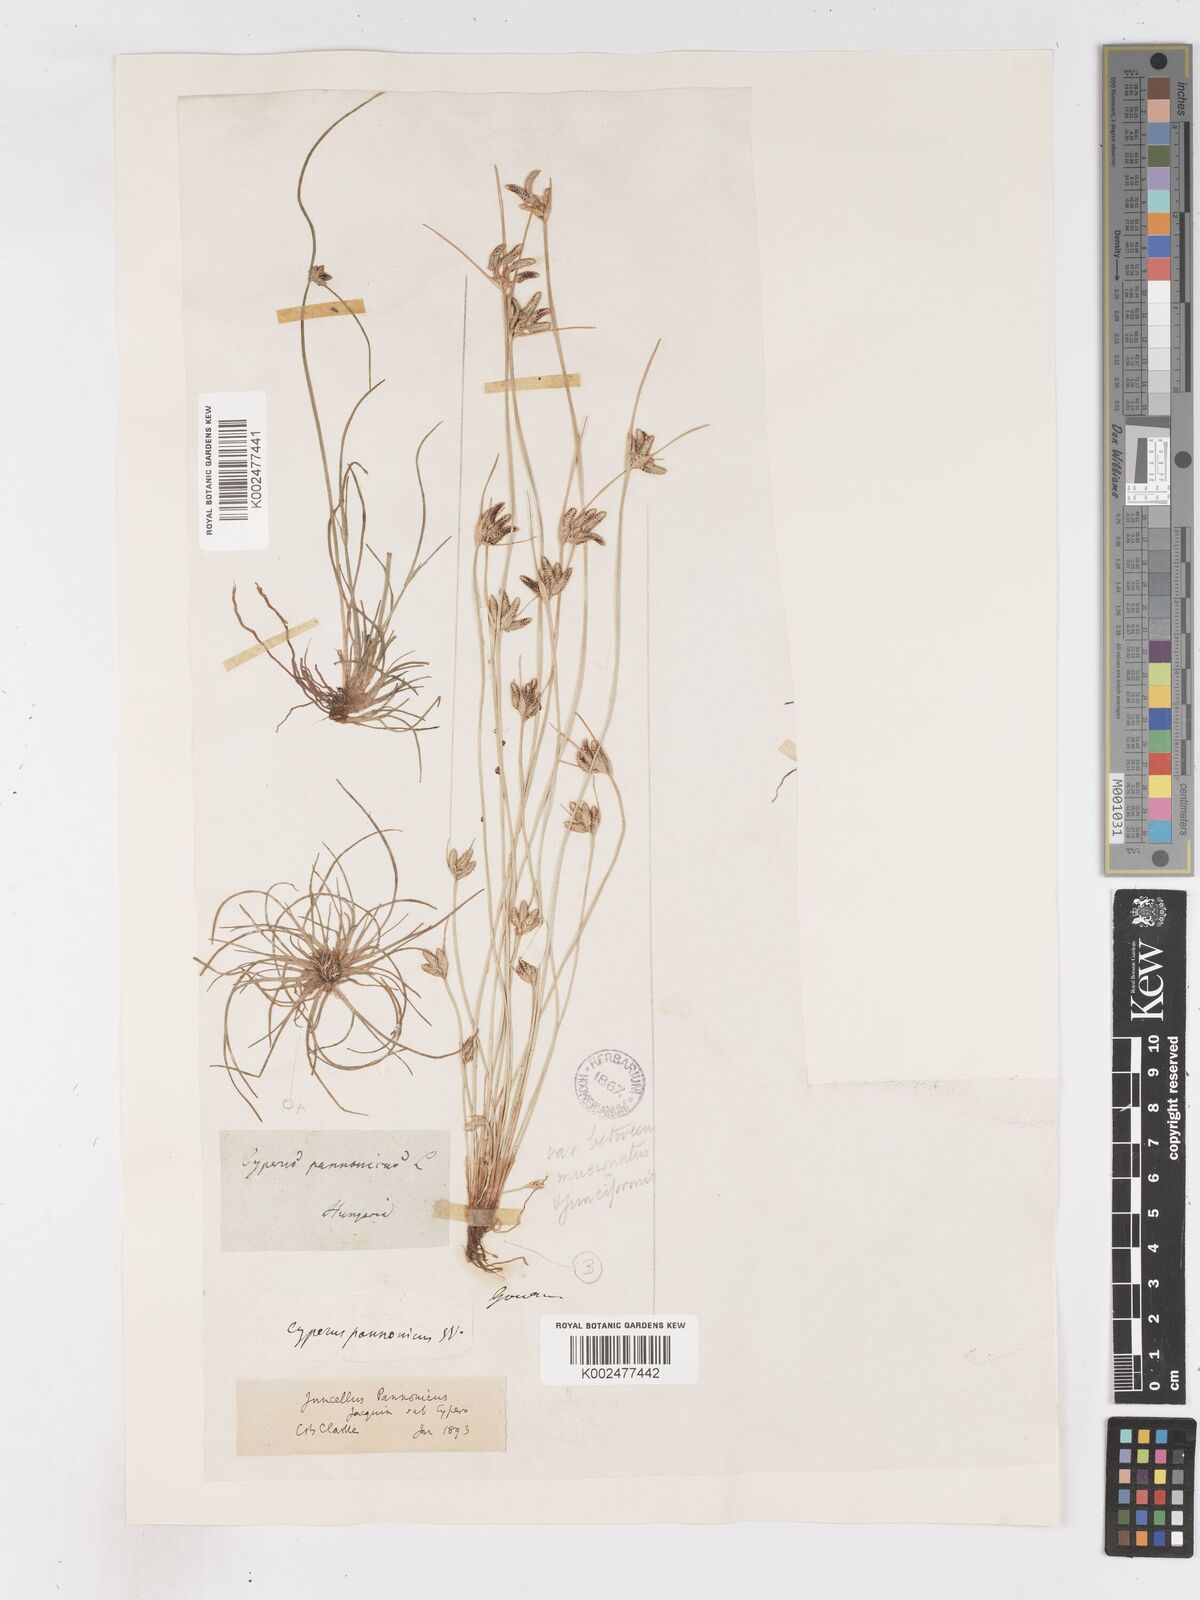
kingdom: Plantae
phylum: Tracheophyta
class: Liliopsida
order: Poales
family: Cyperaceae
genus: Cyperus
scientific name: Cyperus pannonicus
